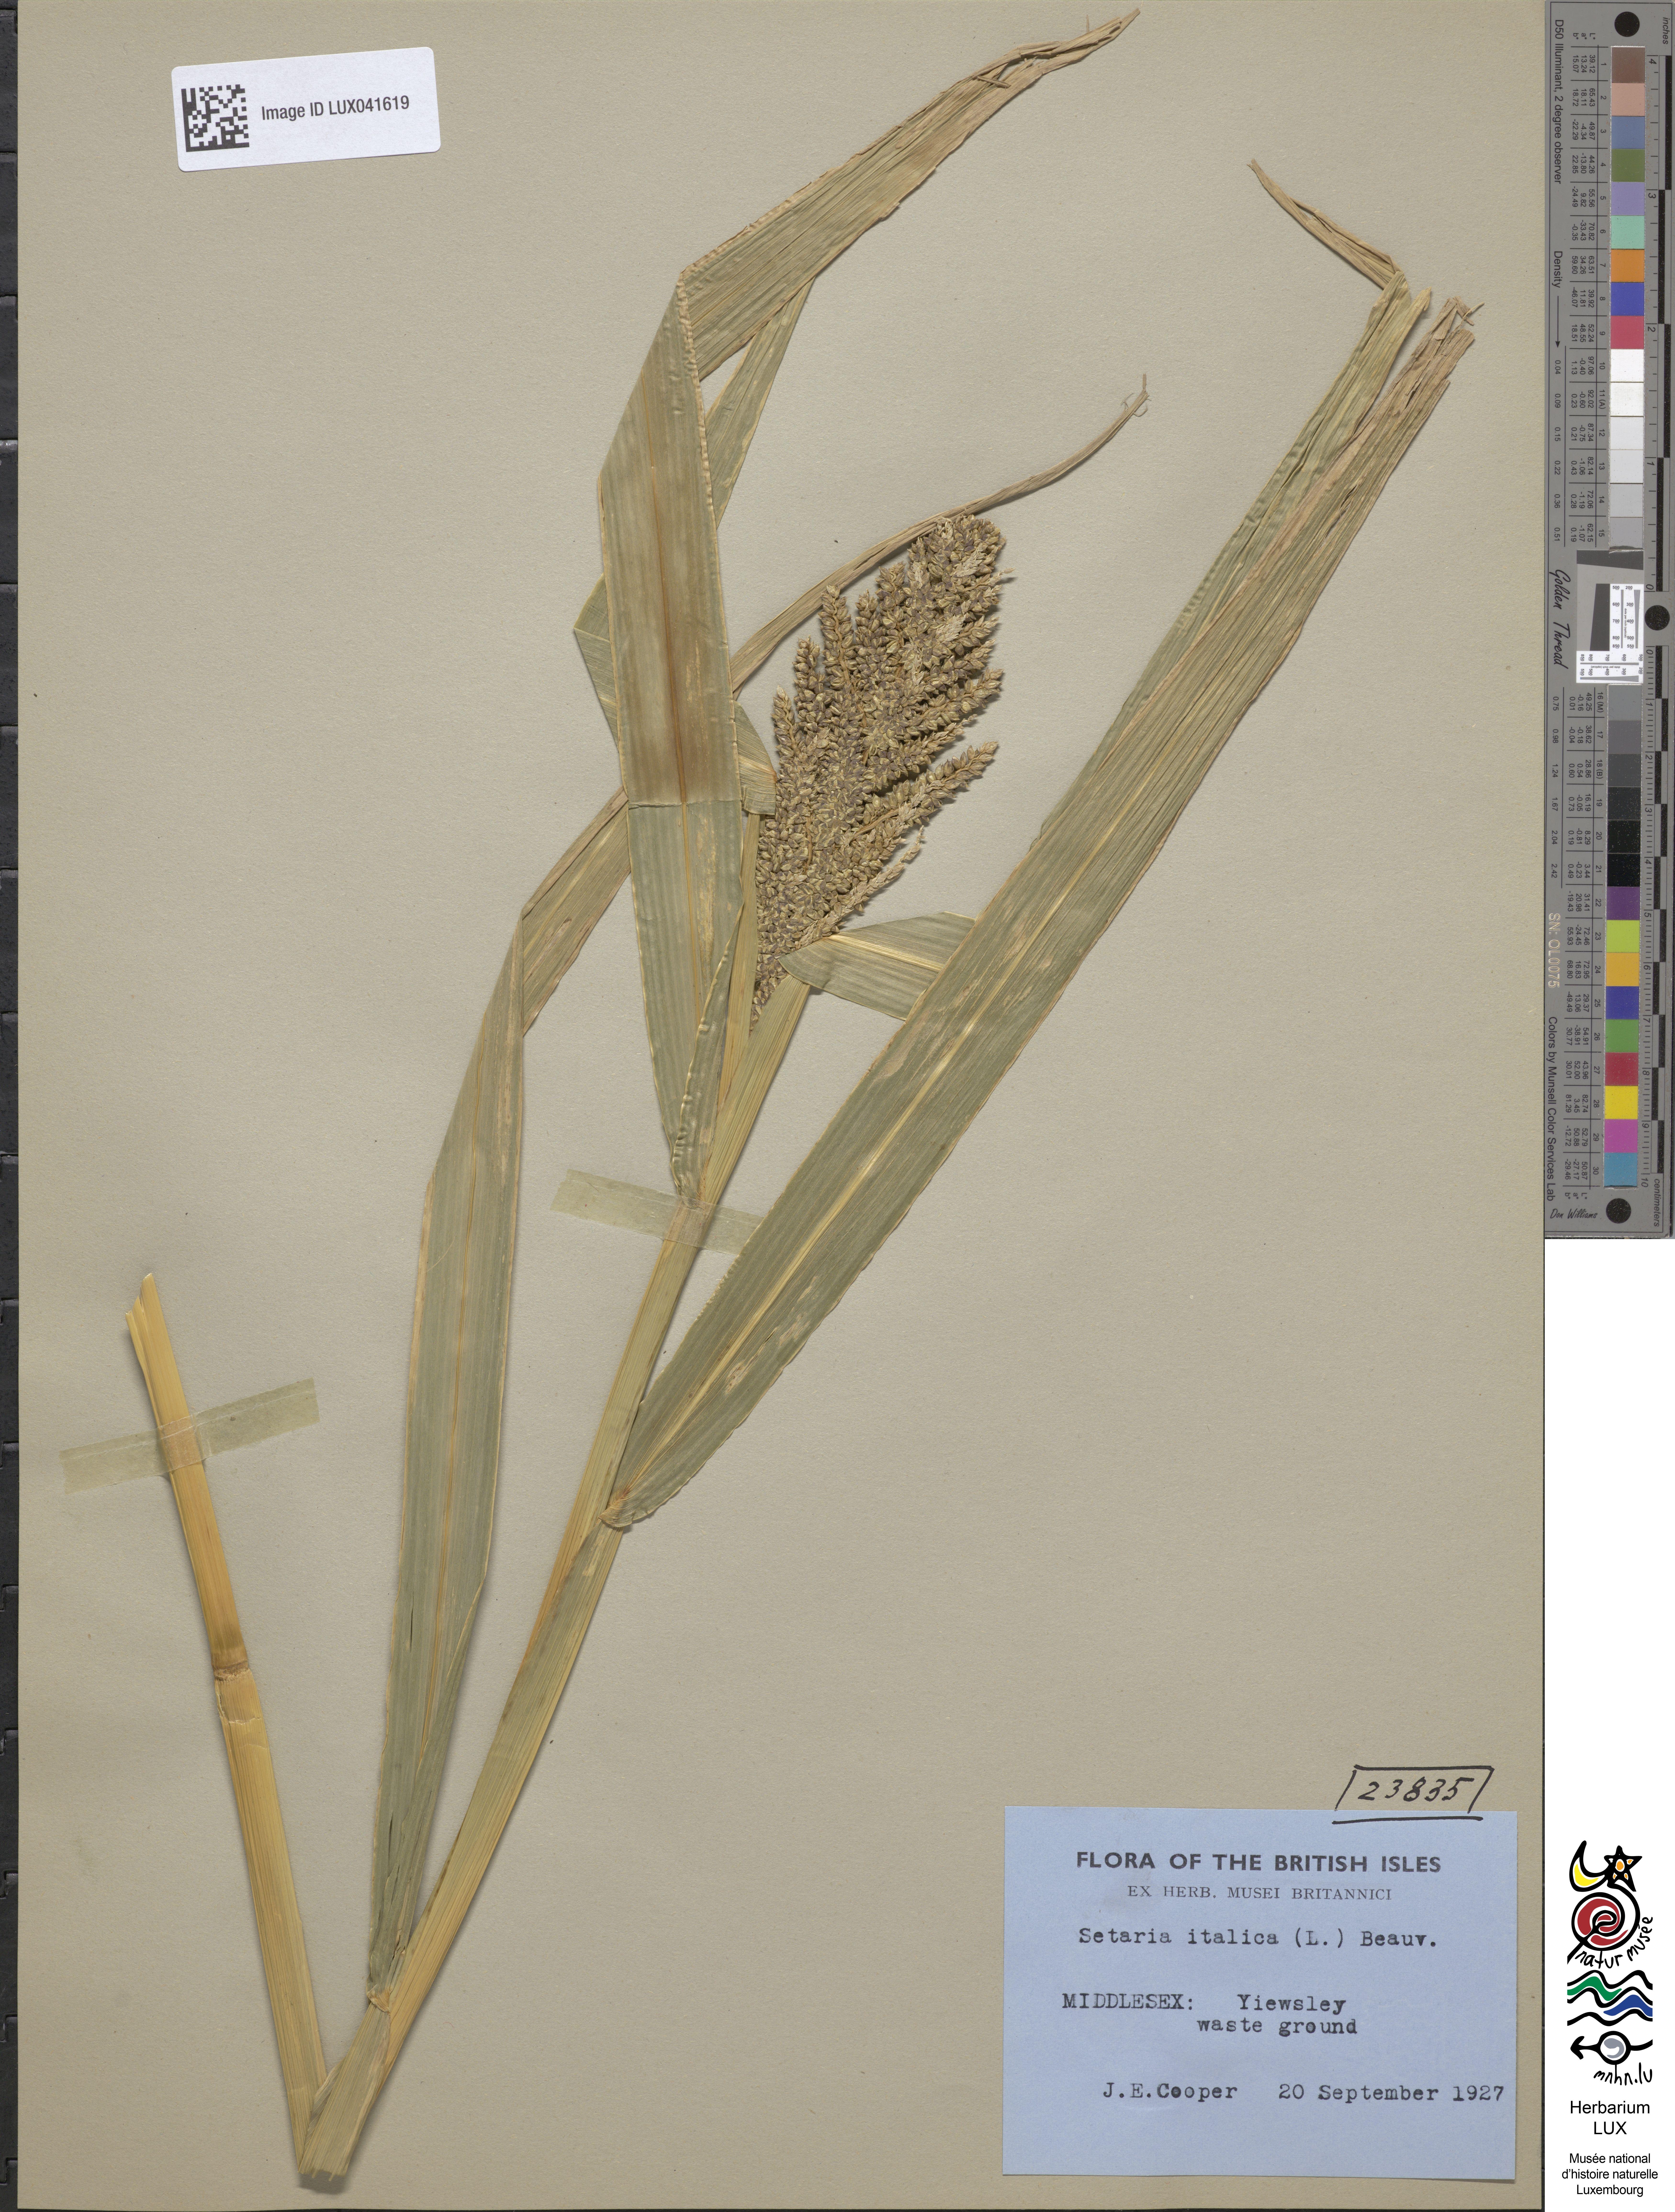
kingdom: Plantae
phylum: Tracheophyta
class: Liliopsida
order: Poales
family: Poaceae
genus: Setaria
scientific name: Setaria italica
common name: Foxtail bristle-grass
